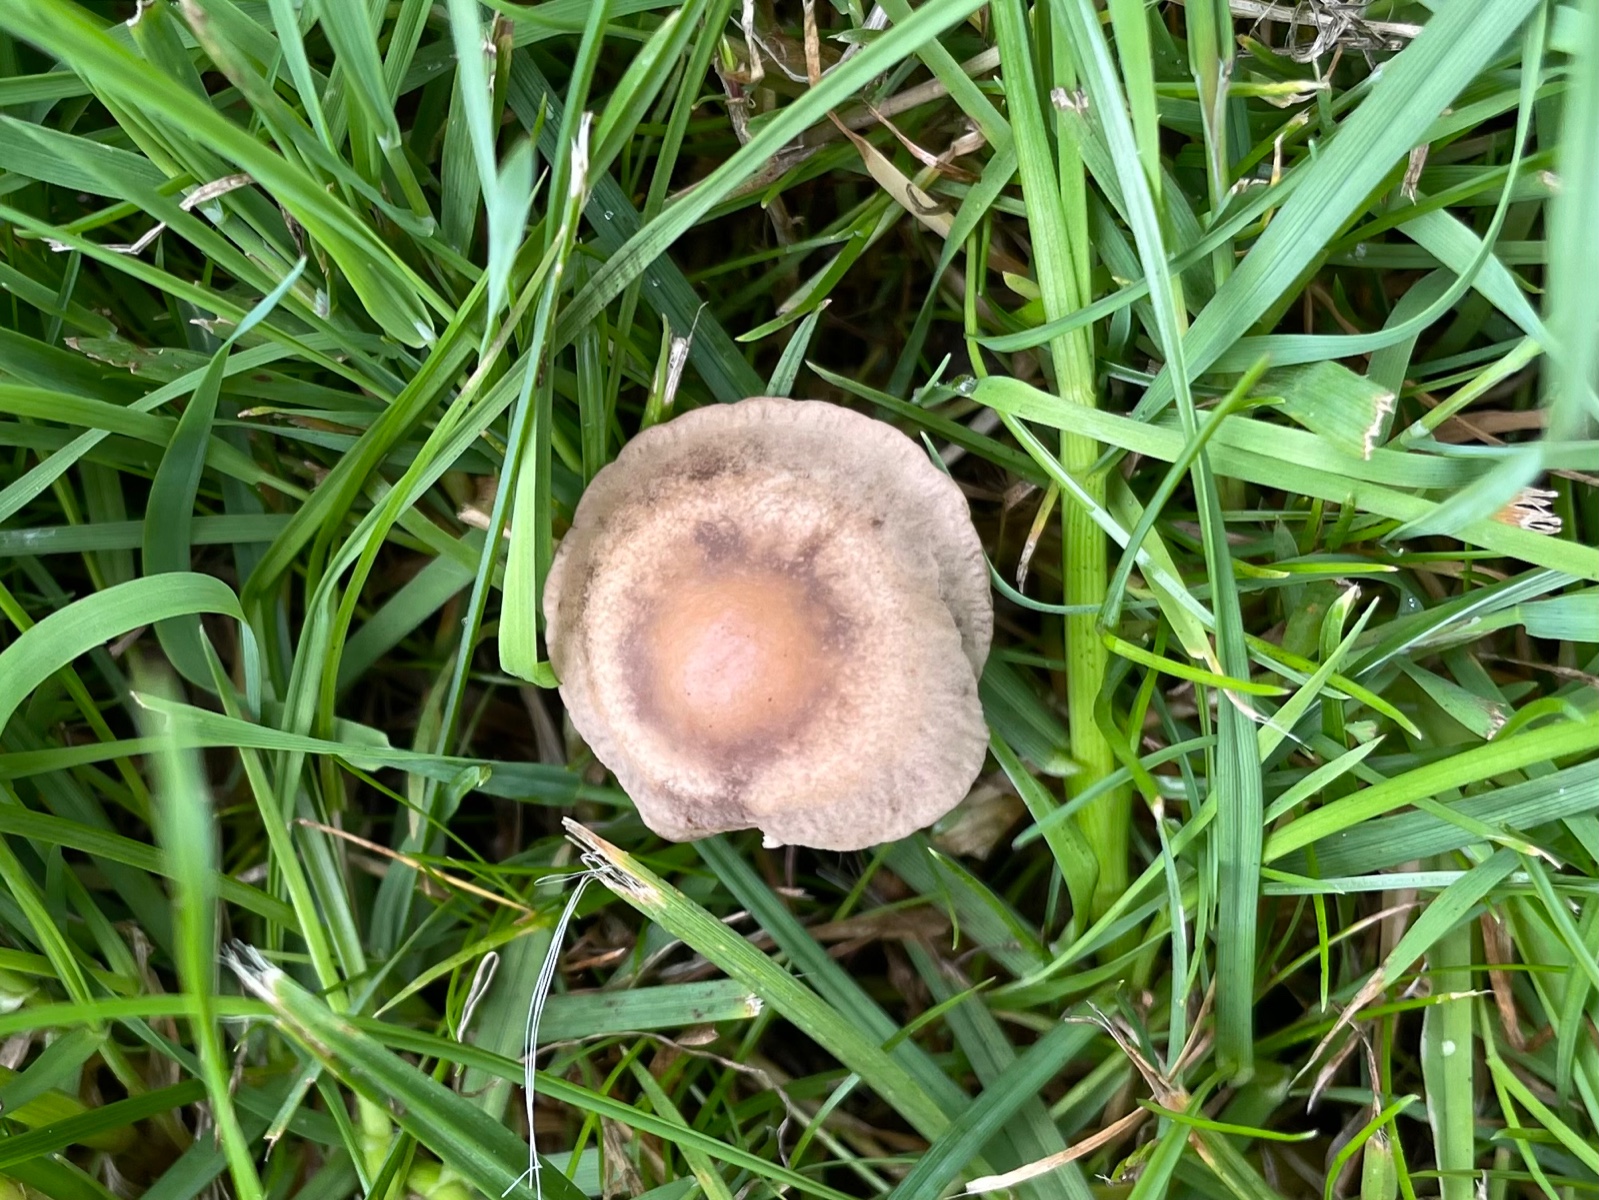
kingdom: Fungi
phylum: Basidiomycota
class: Agaricomycetes
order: Agaricales
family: Bolbitiaceae
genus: Panaeolina
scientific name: Panaeolina foenisecii
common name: høslætsvamp
